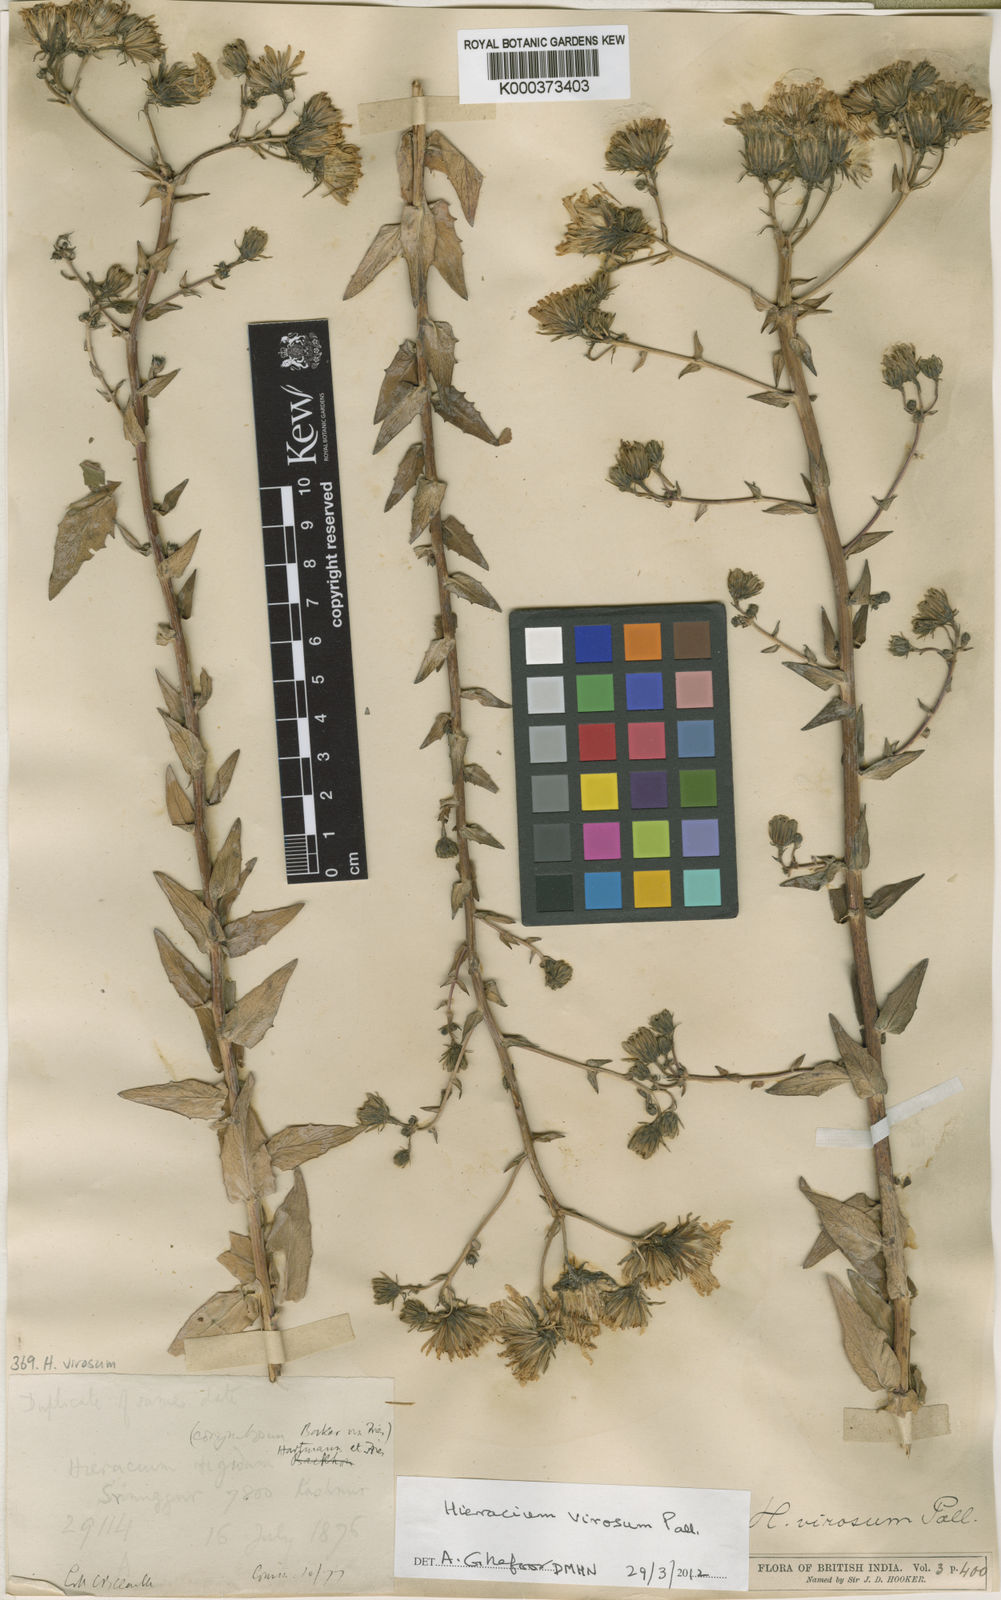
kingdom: Plantae
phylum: Tracheophyta
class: Magnoliopsida
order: Asterales
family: Asteraceae
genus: Hieracium
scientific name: Hieracium virosum
